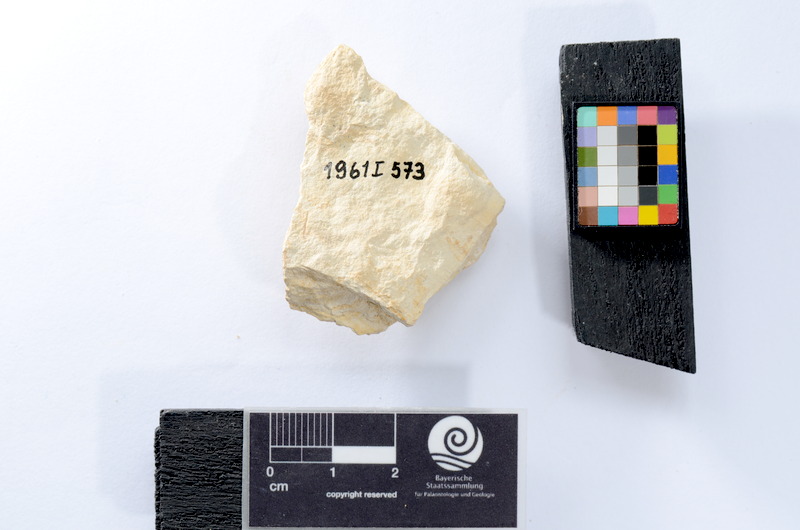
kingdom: Animalia
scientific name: Animalia
